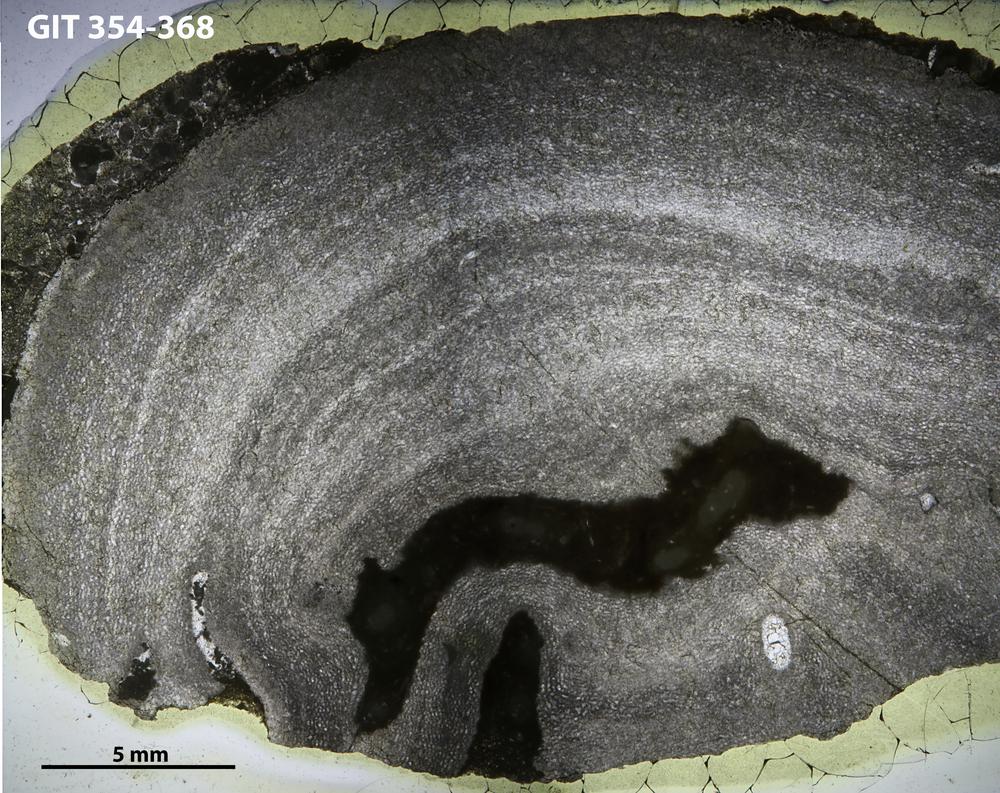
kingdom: Animalia
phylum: Porifera
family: Clathrodictyidae
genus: Clathrodictyon
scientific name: Clathrodictyon clivosum
